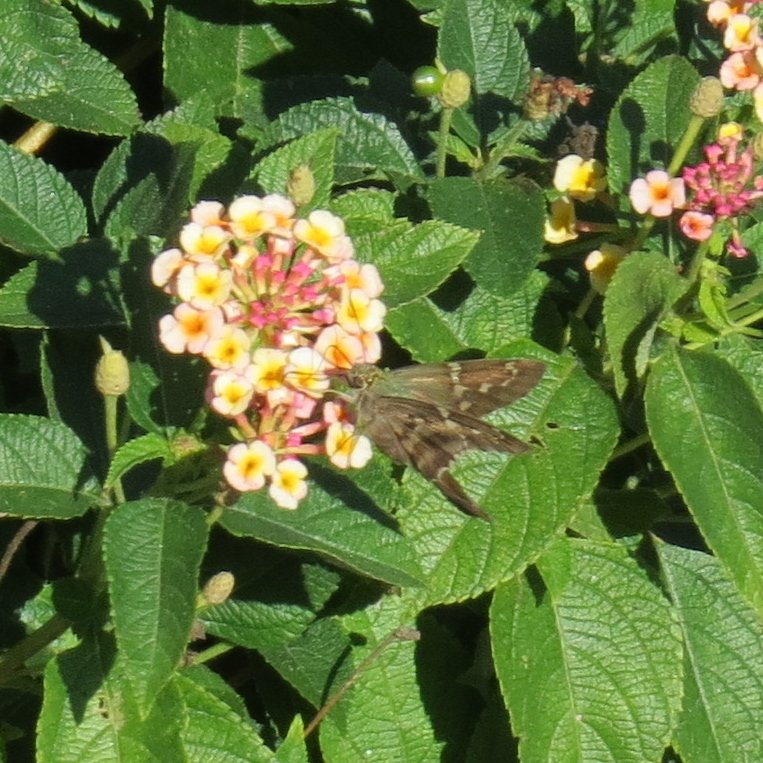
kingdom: Animalia
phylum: Arthropoda
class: Insecta
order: Lepidoptera
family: Hesperiidae
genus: Urbanus
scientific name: Urbanus proteus
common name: Long-tailed Skipper
